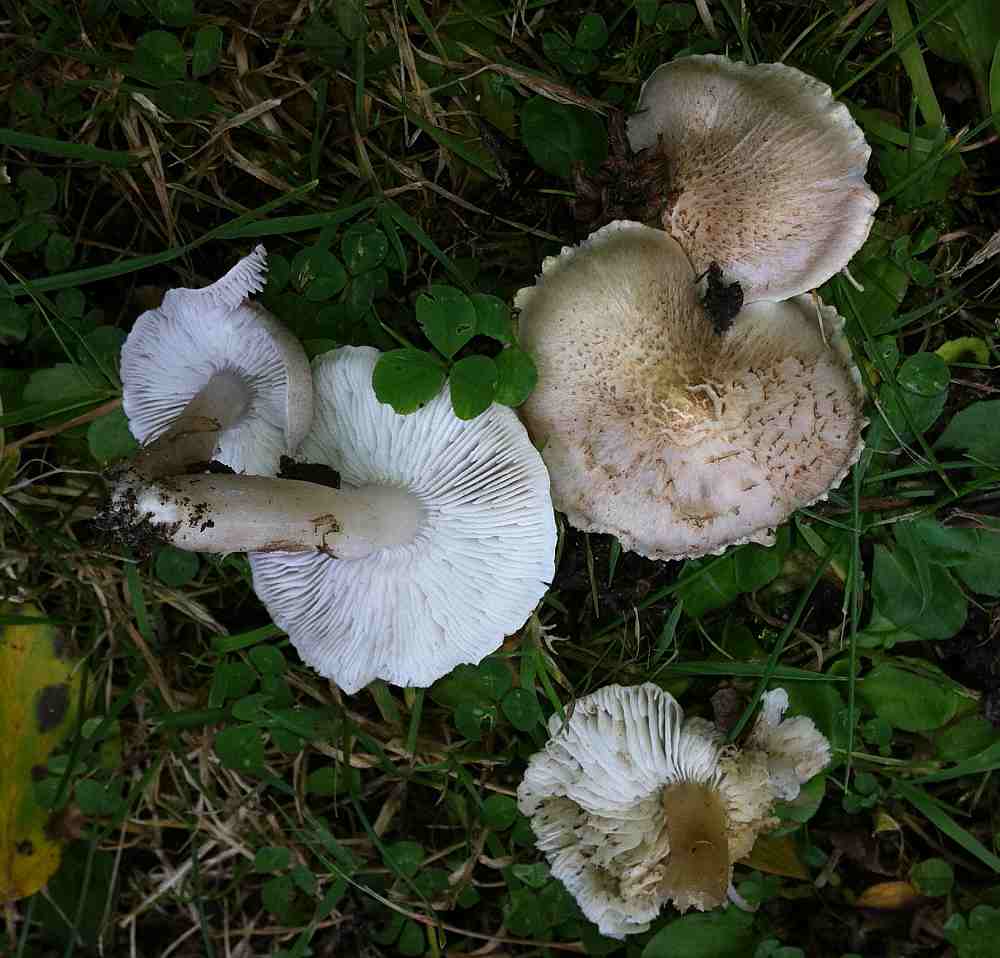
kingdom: Fungi
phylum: Basidiomycota
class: Agaricomycetes
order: Agaricales
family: Tricholomataceae
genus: Tricholoma
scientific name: Tricholoma argyraceum
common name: spids ridderhat
